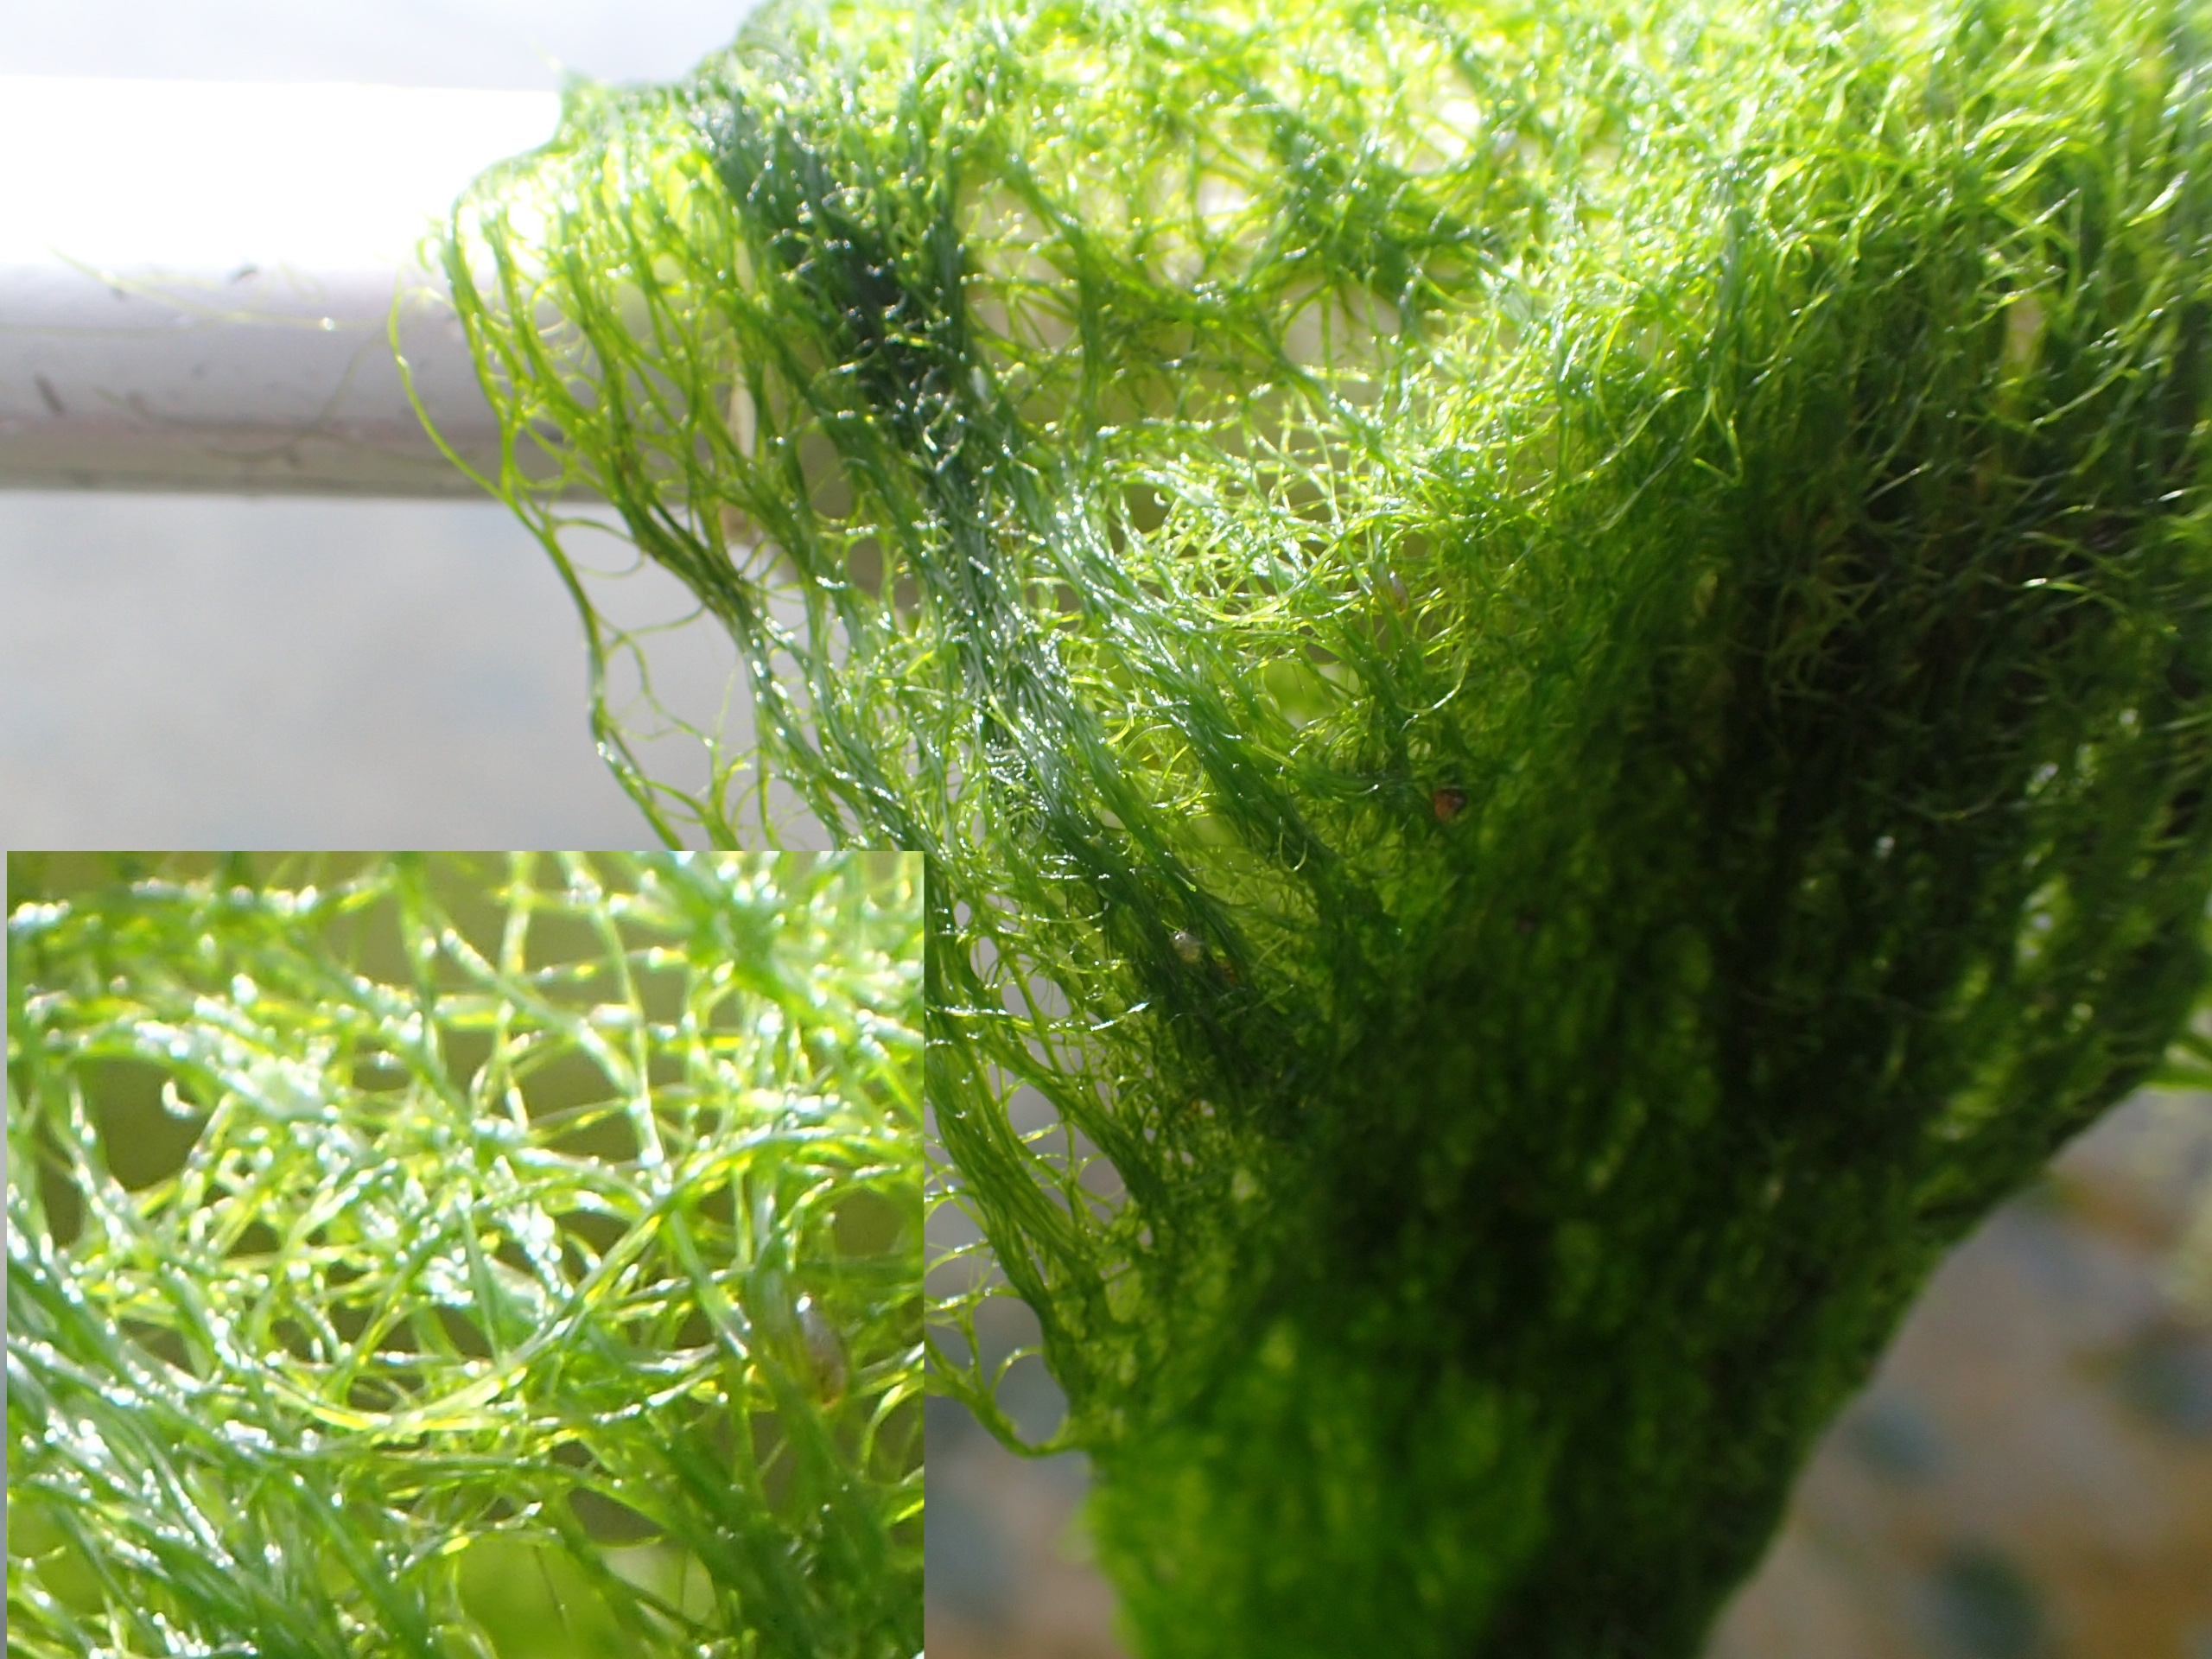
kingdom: Plantae
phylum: Chlorophyta
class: Ulvophyceae
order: Ulvales
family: Ulvaceae
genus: Ulva
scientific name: Ulva
